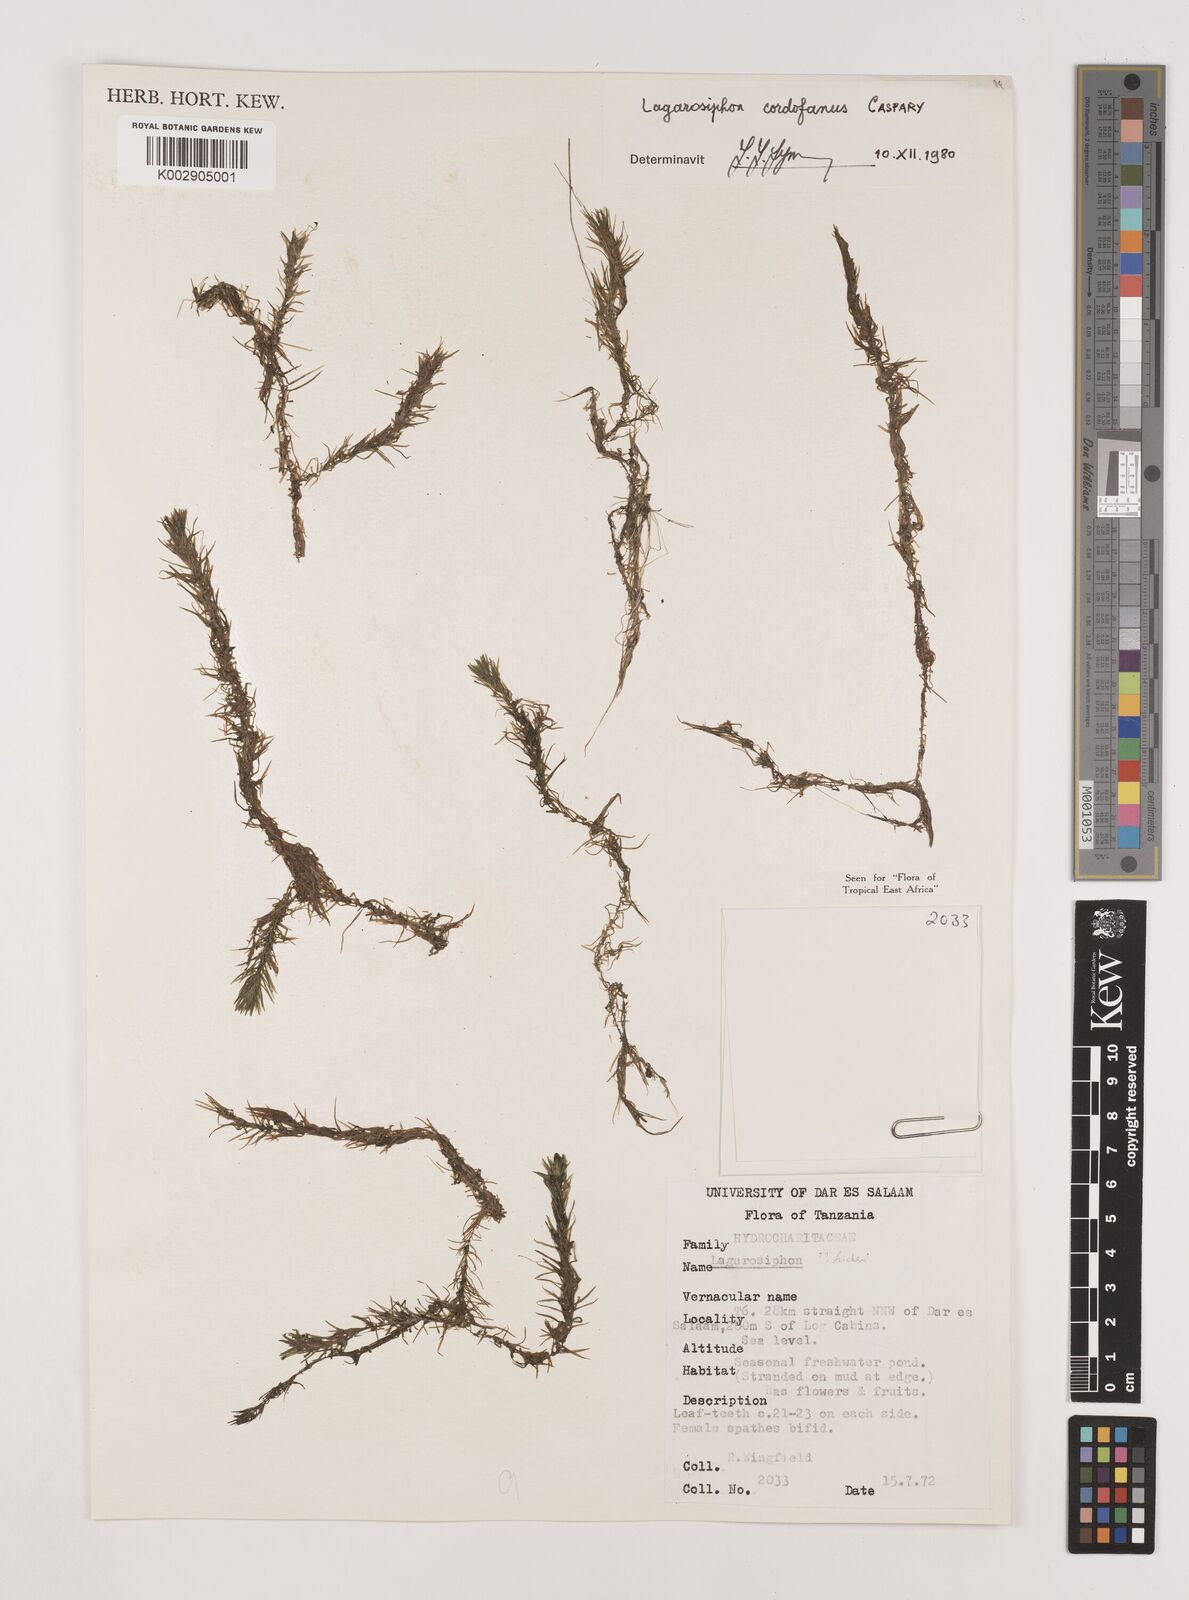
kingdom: Plantae
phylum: Tracheophyta
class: Liliopsida
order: Alismatales
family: Hydrocharitaceae
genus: Lagarosiphon
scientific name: Lagarosiphon cordofanus
